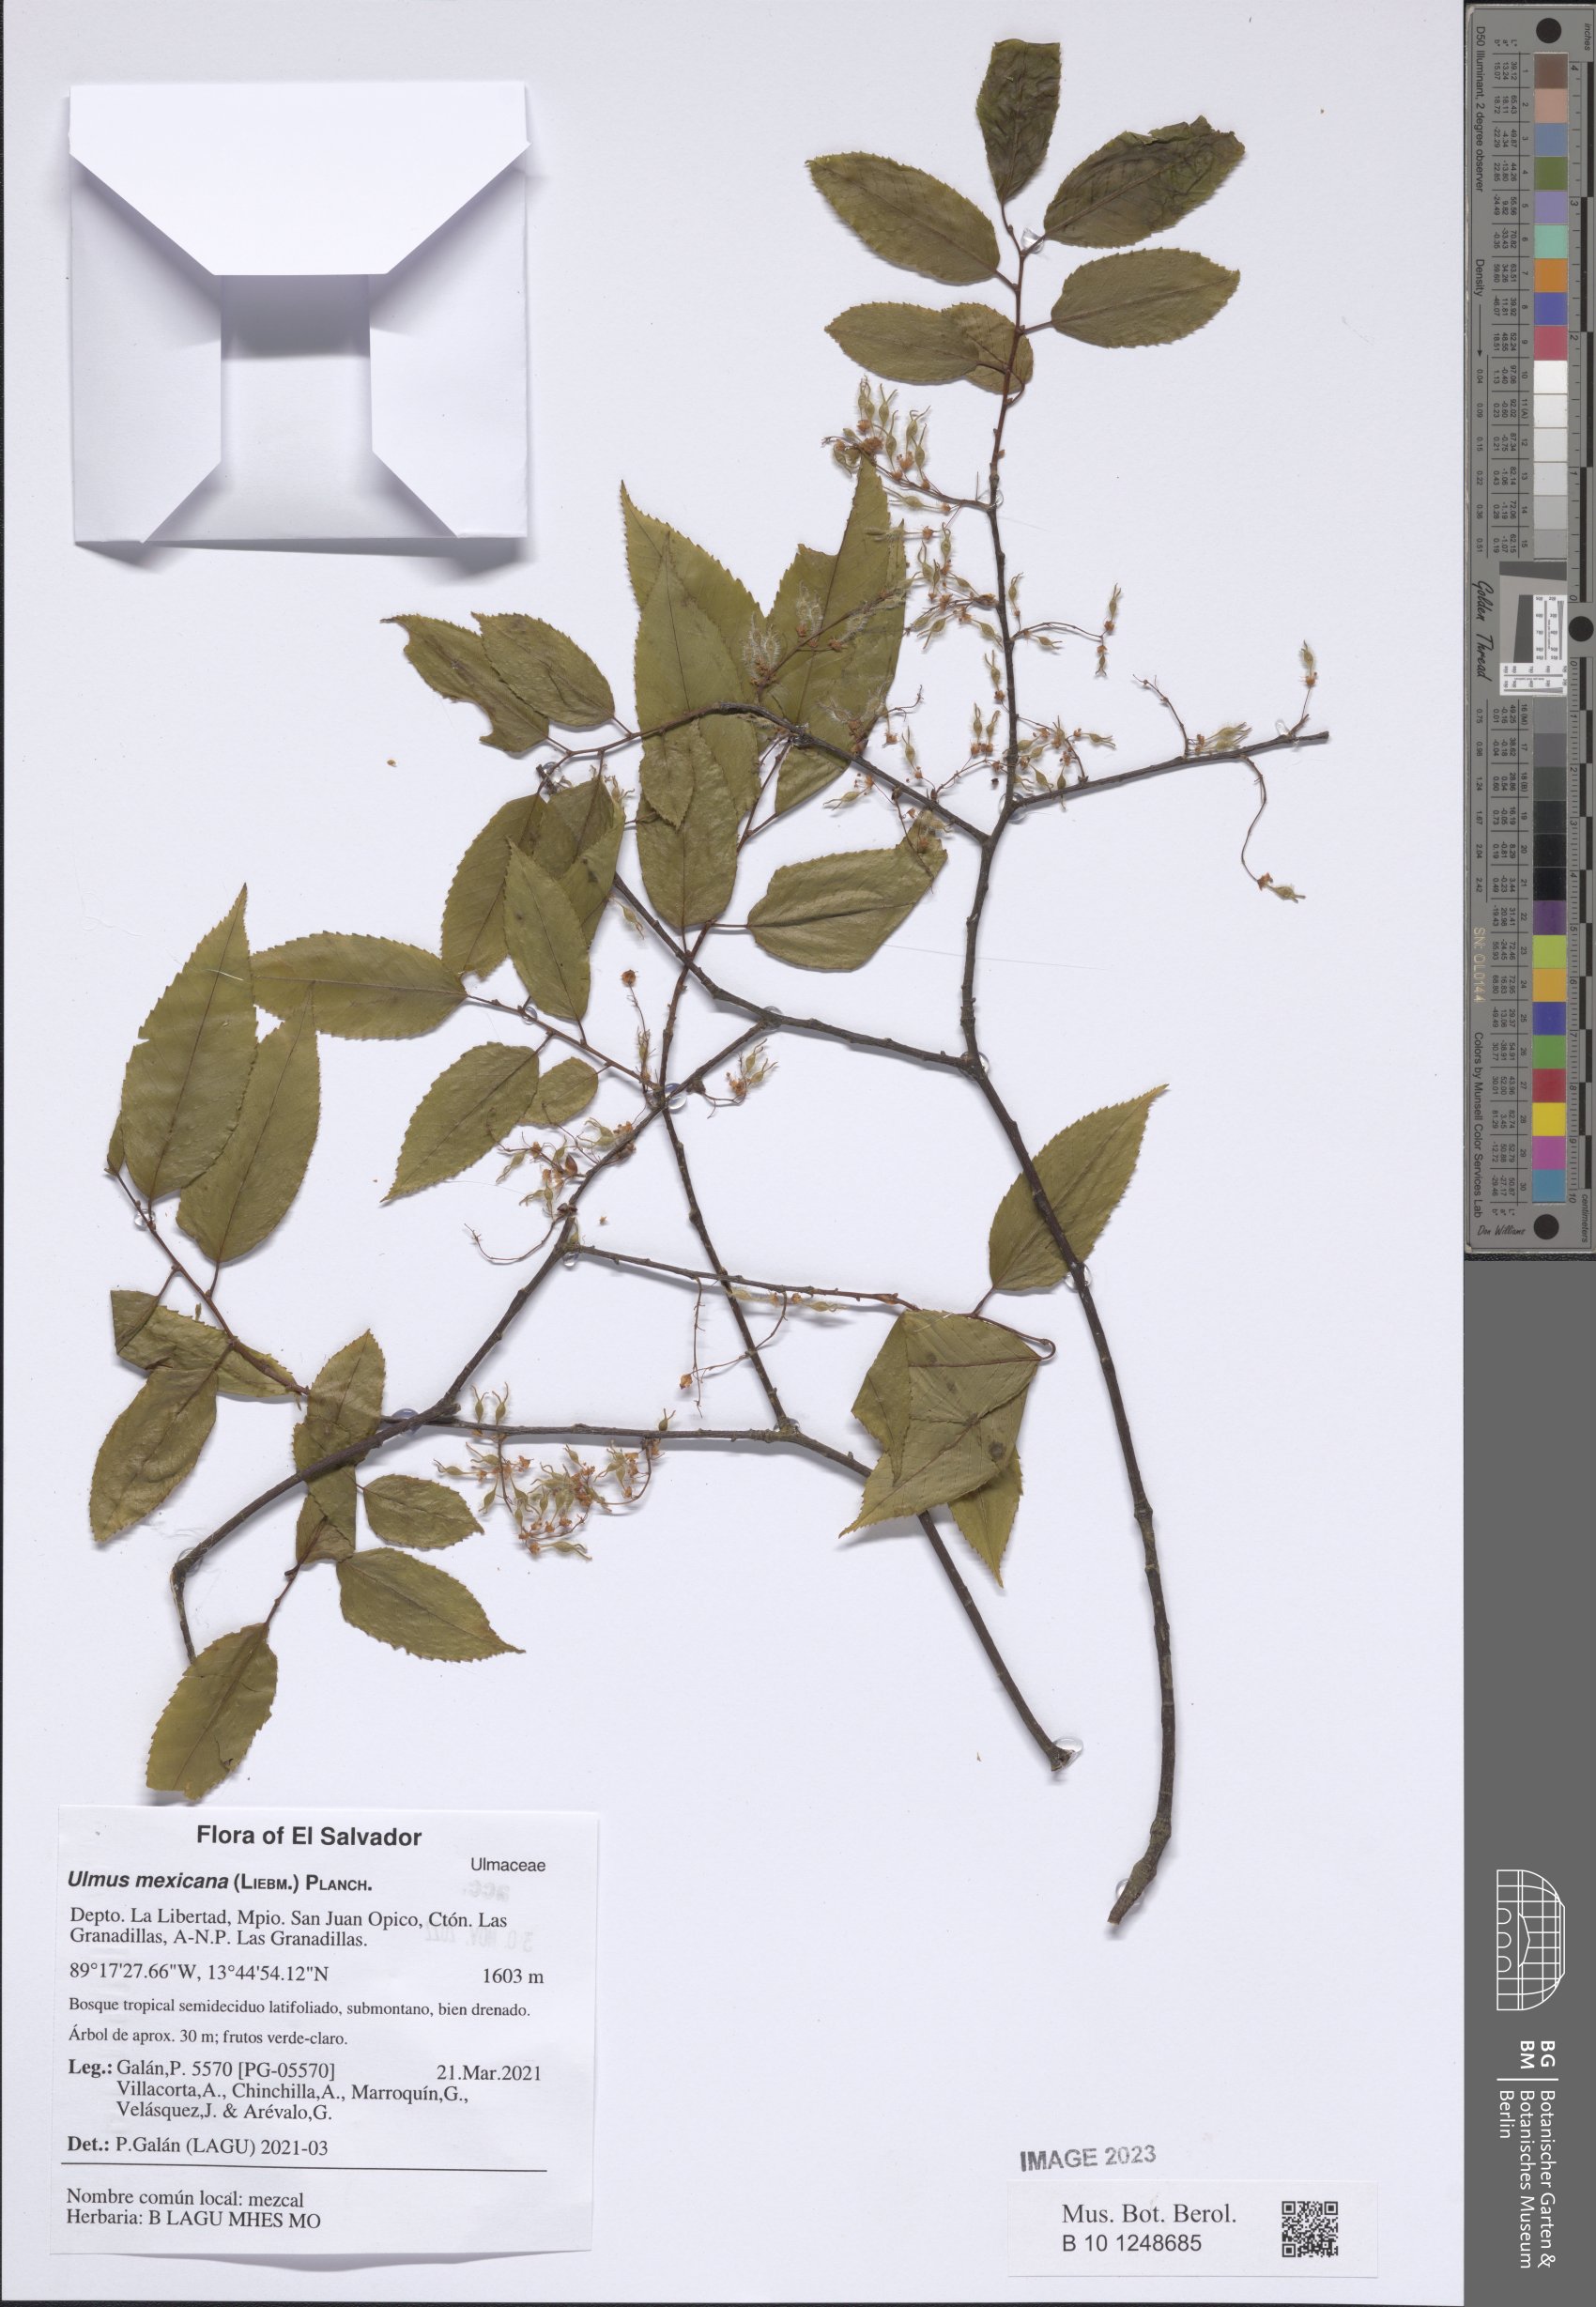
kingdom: Plantae
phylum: Tracheophyta
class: Magnoliopsida
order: Rosales
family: Ulmaceae
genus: Ulmus
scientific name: Ulmus mexicana
